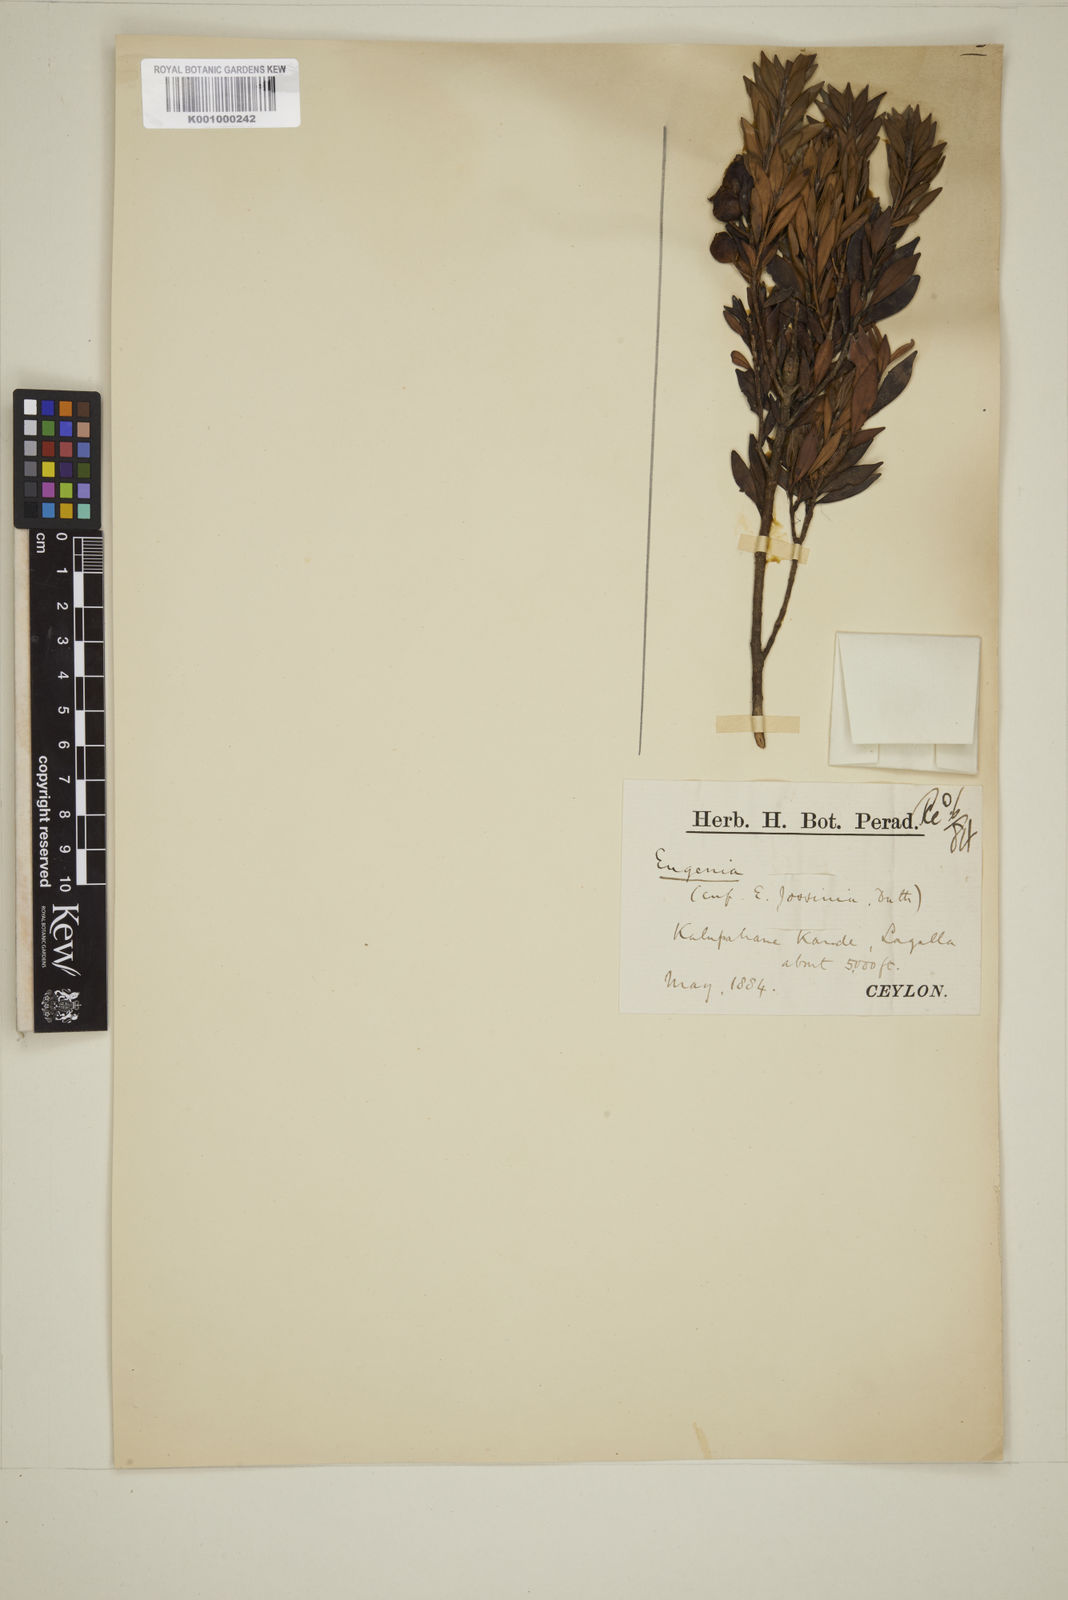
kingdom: Plantae
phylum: Tracheophyta
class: Magnoliopsida
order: Myrtales
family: Myrtaceae
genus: Eugenia
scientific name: Eugenia
